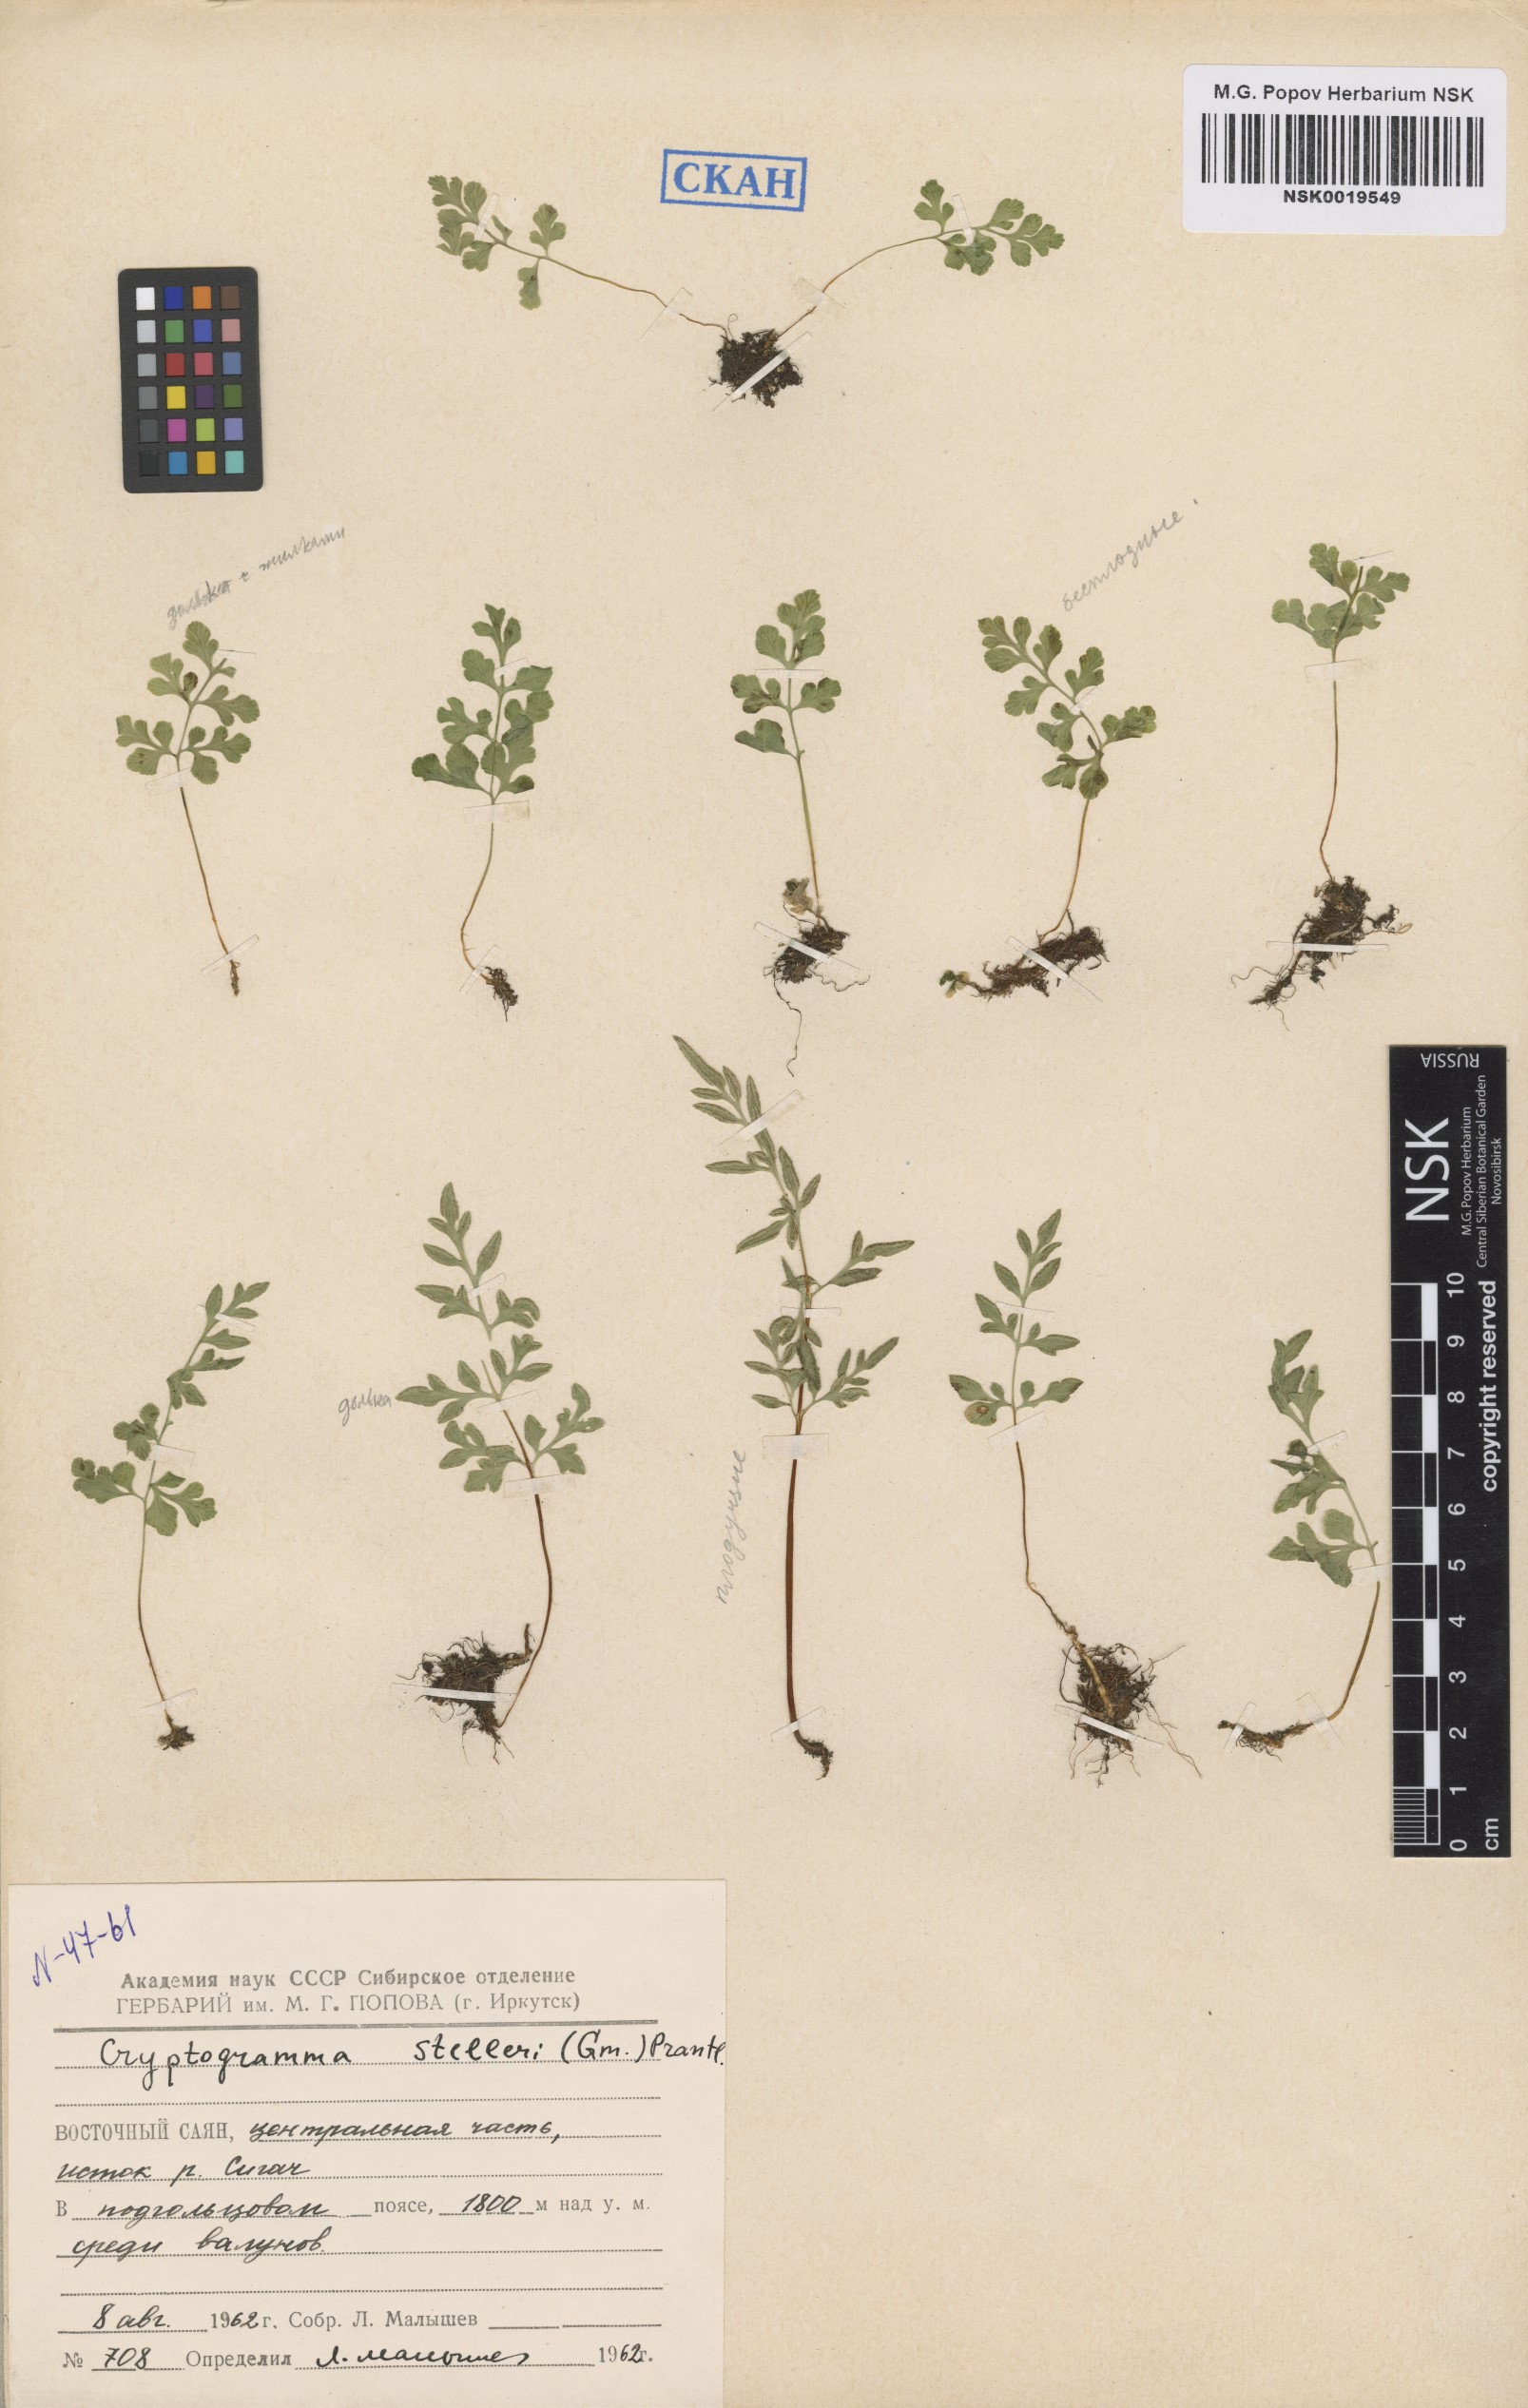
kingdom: Plantae
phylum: Tracheophyta
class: Polypodiopsida
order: Polypodiales
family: Pteridaceae
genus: Cryptogramma
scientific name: Cryptogramma stelleri
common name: Cliff-brake
